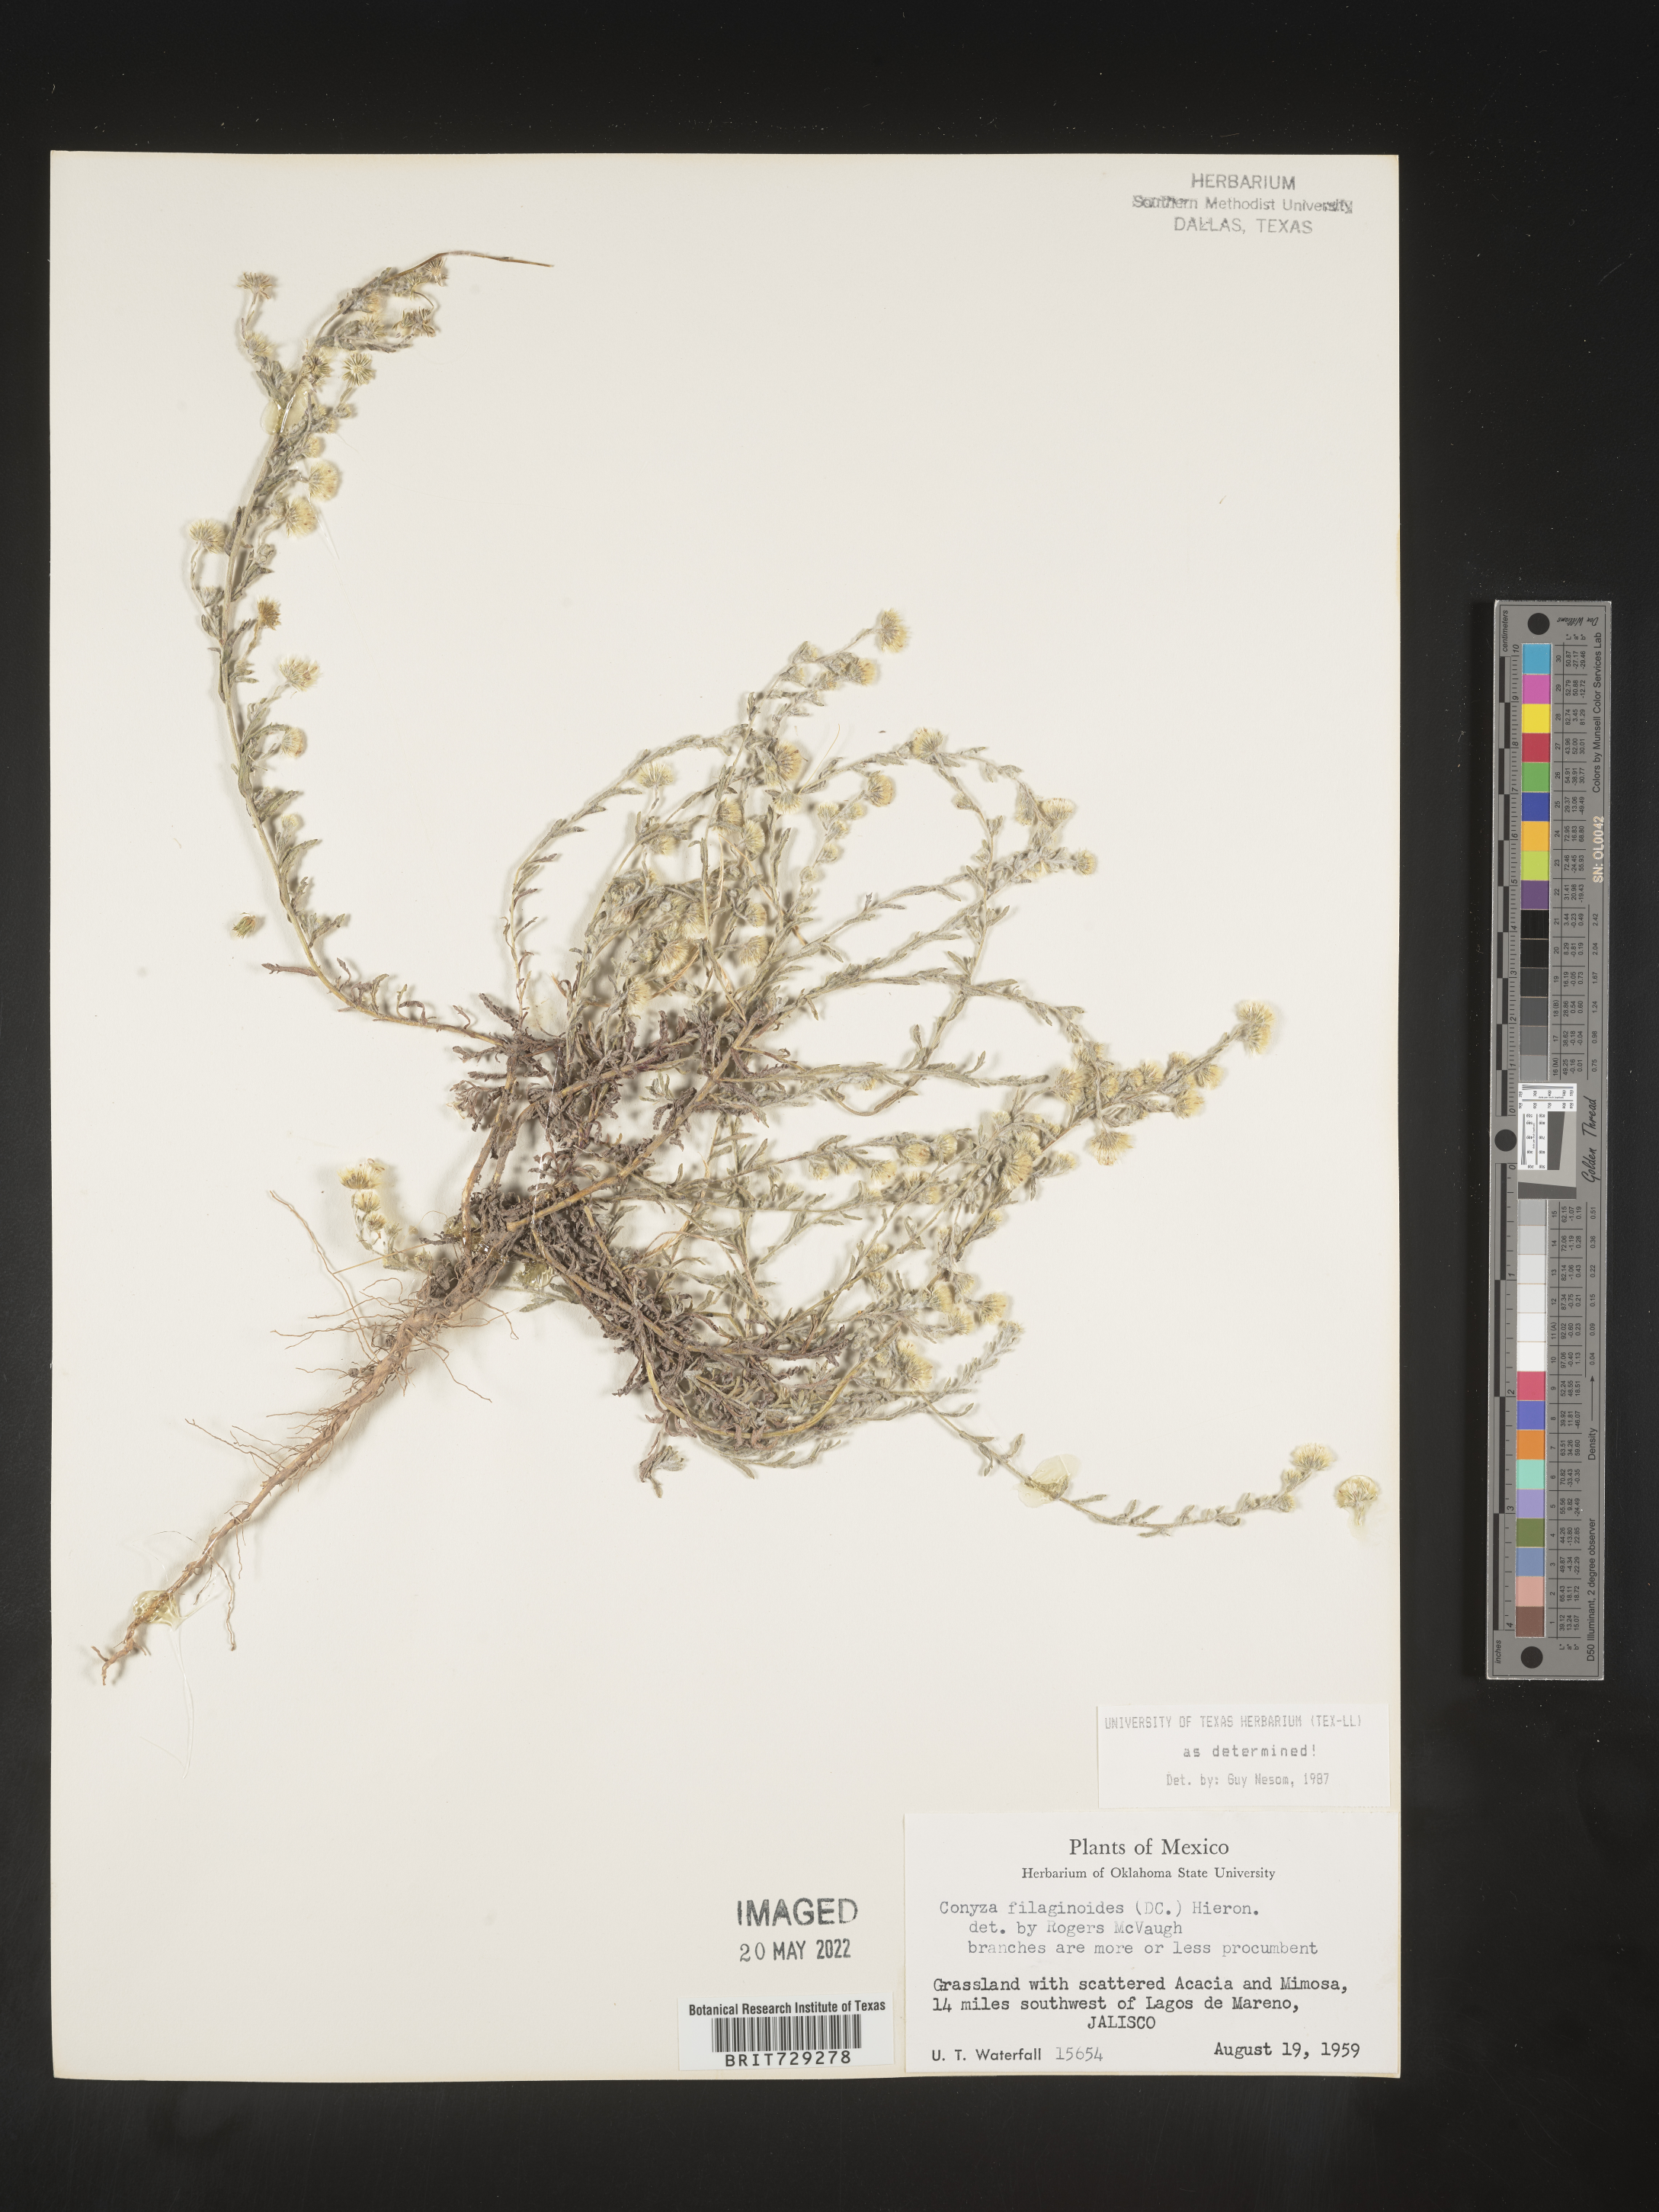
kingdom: Plantae
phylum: Tracheophyta
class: Magnoliopsida
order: Asterales
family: Asteraceae
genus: Laennecia
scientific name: Laennecia
